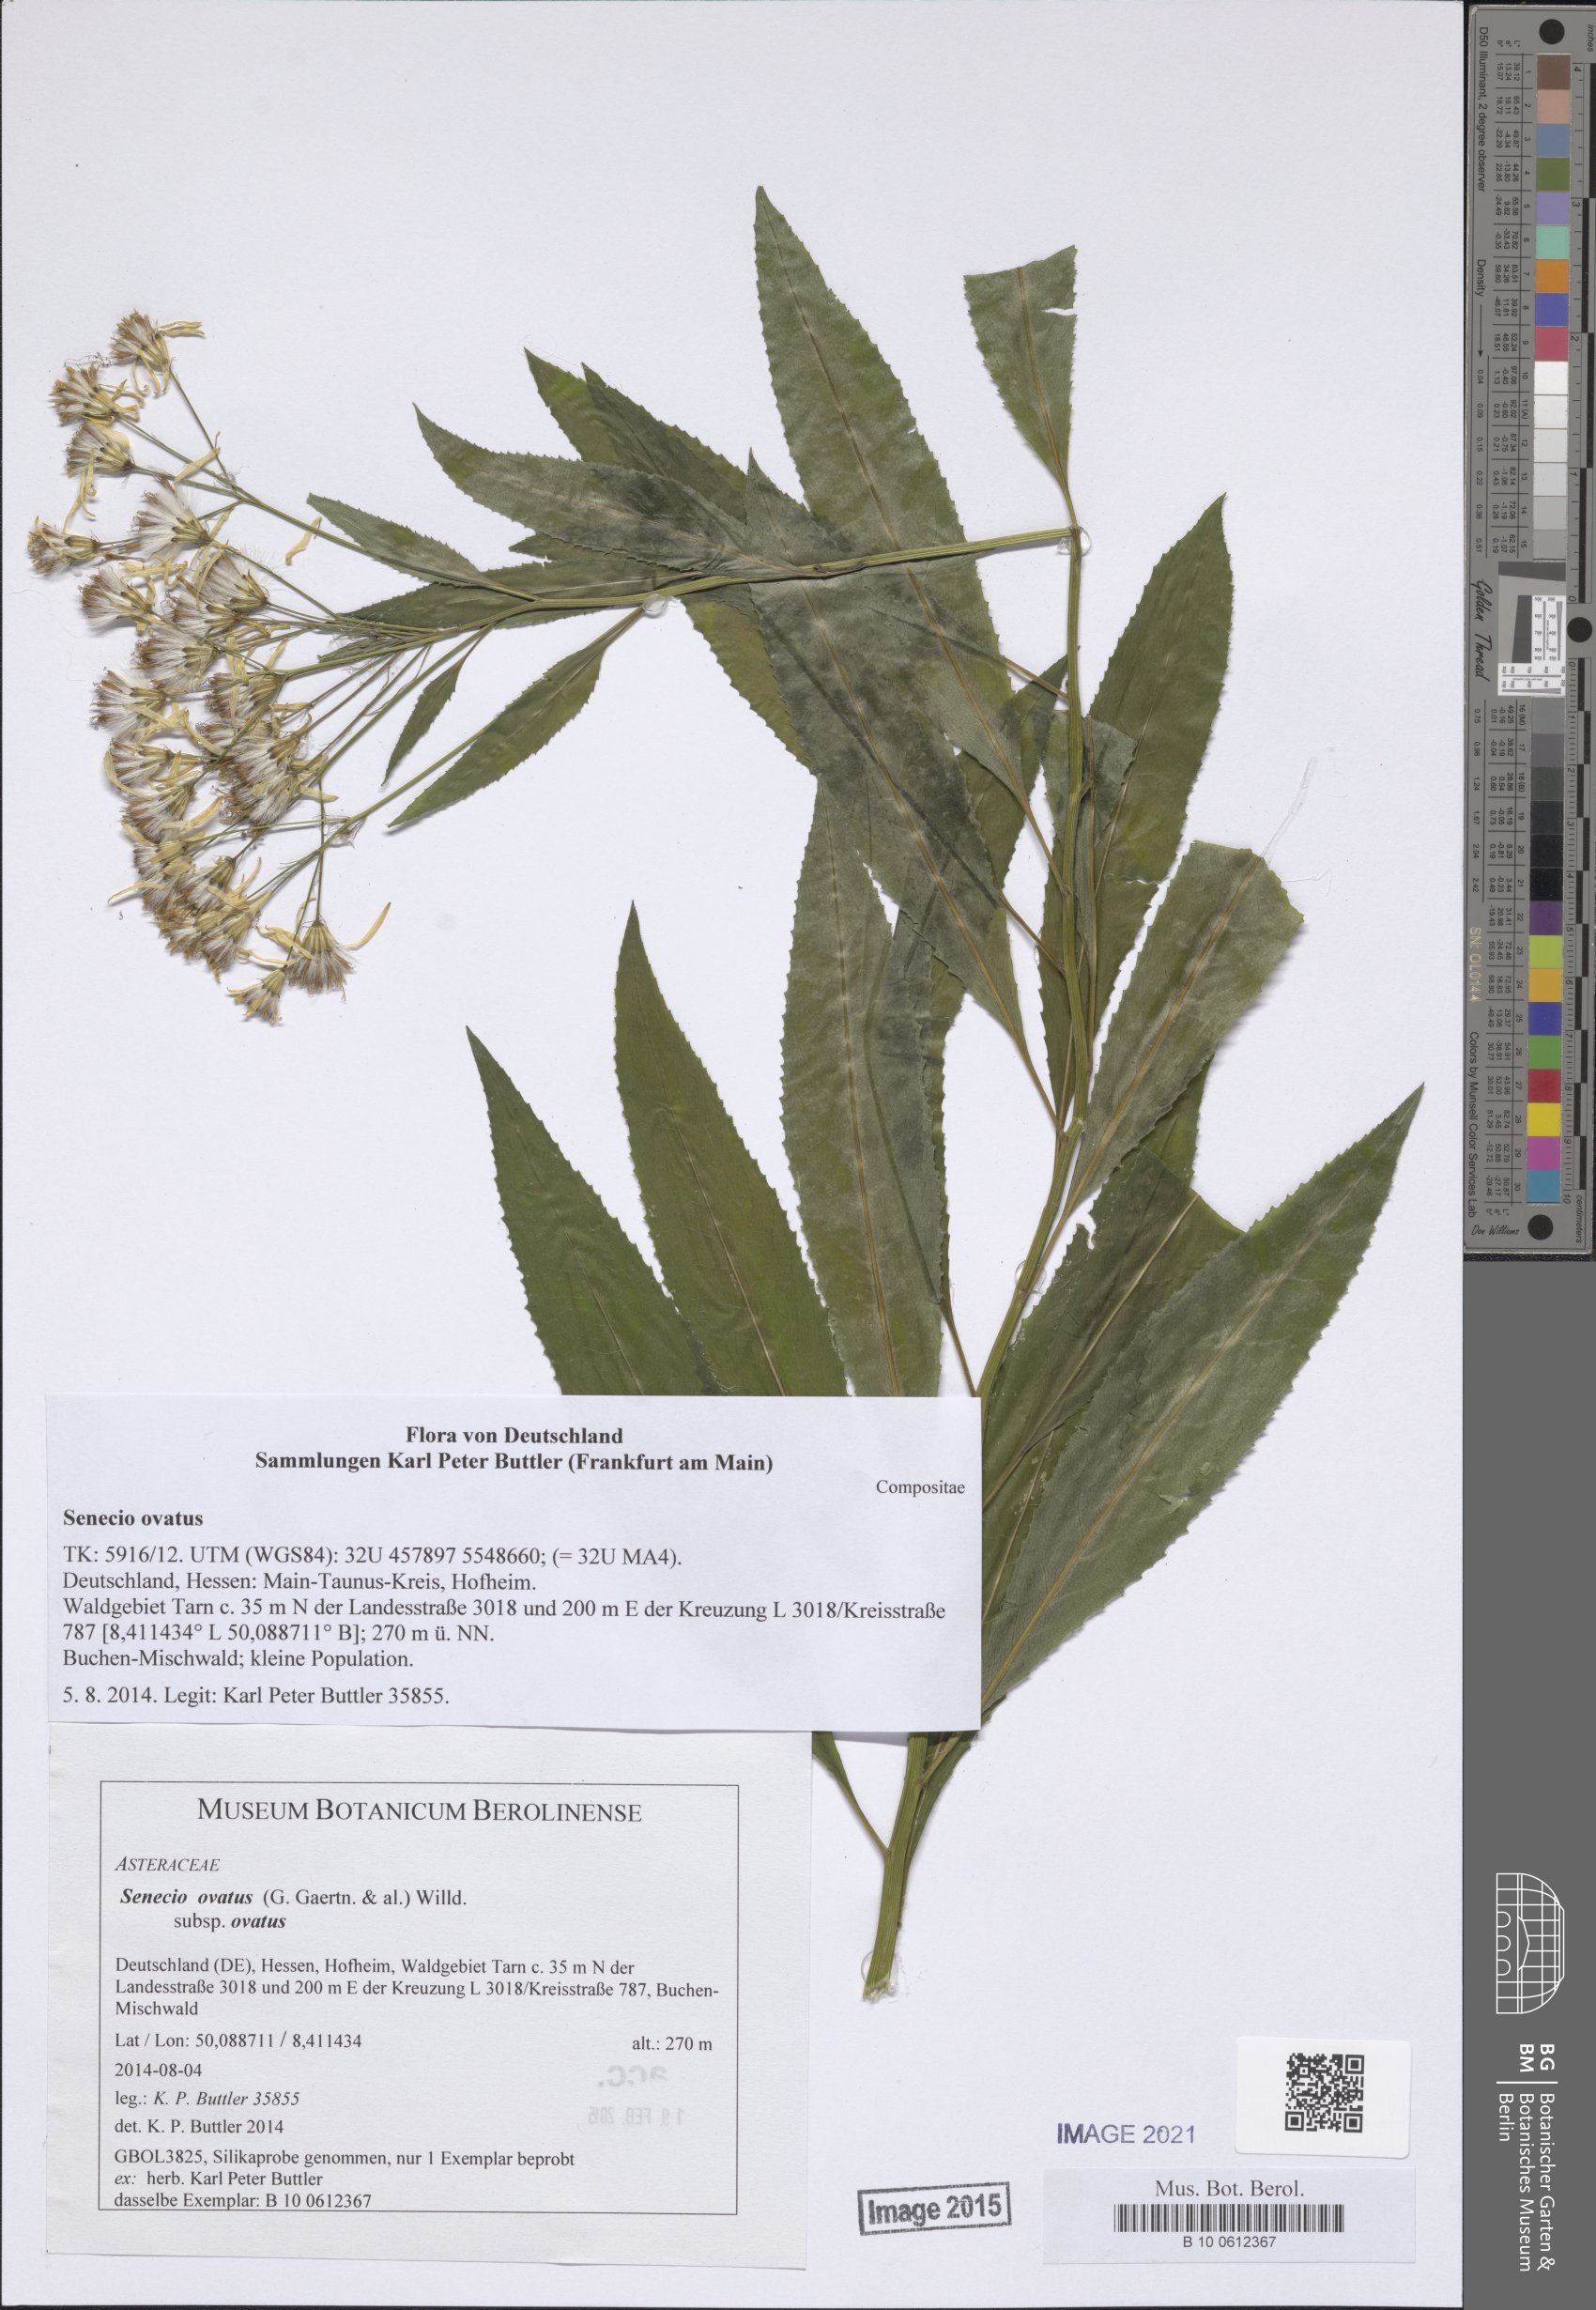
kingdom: Plantae
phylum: Tracheophyta
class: Magnoliopsida
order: Asterales
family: Asteraceae
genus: Senecio
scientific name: Senecio ovatus
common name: Wood ragwort
